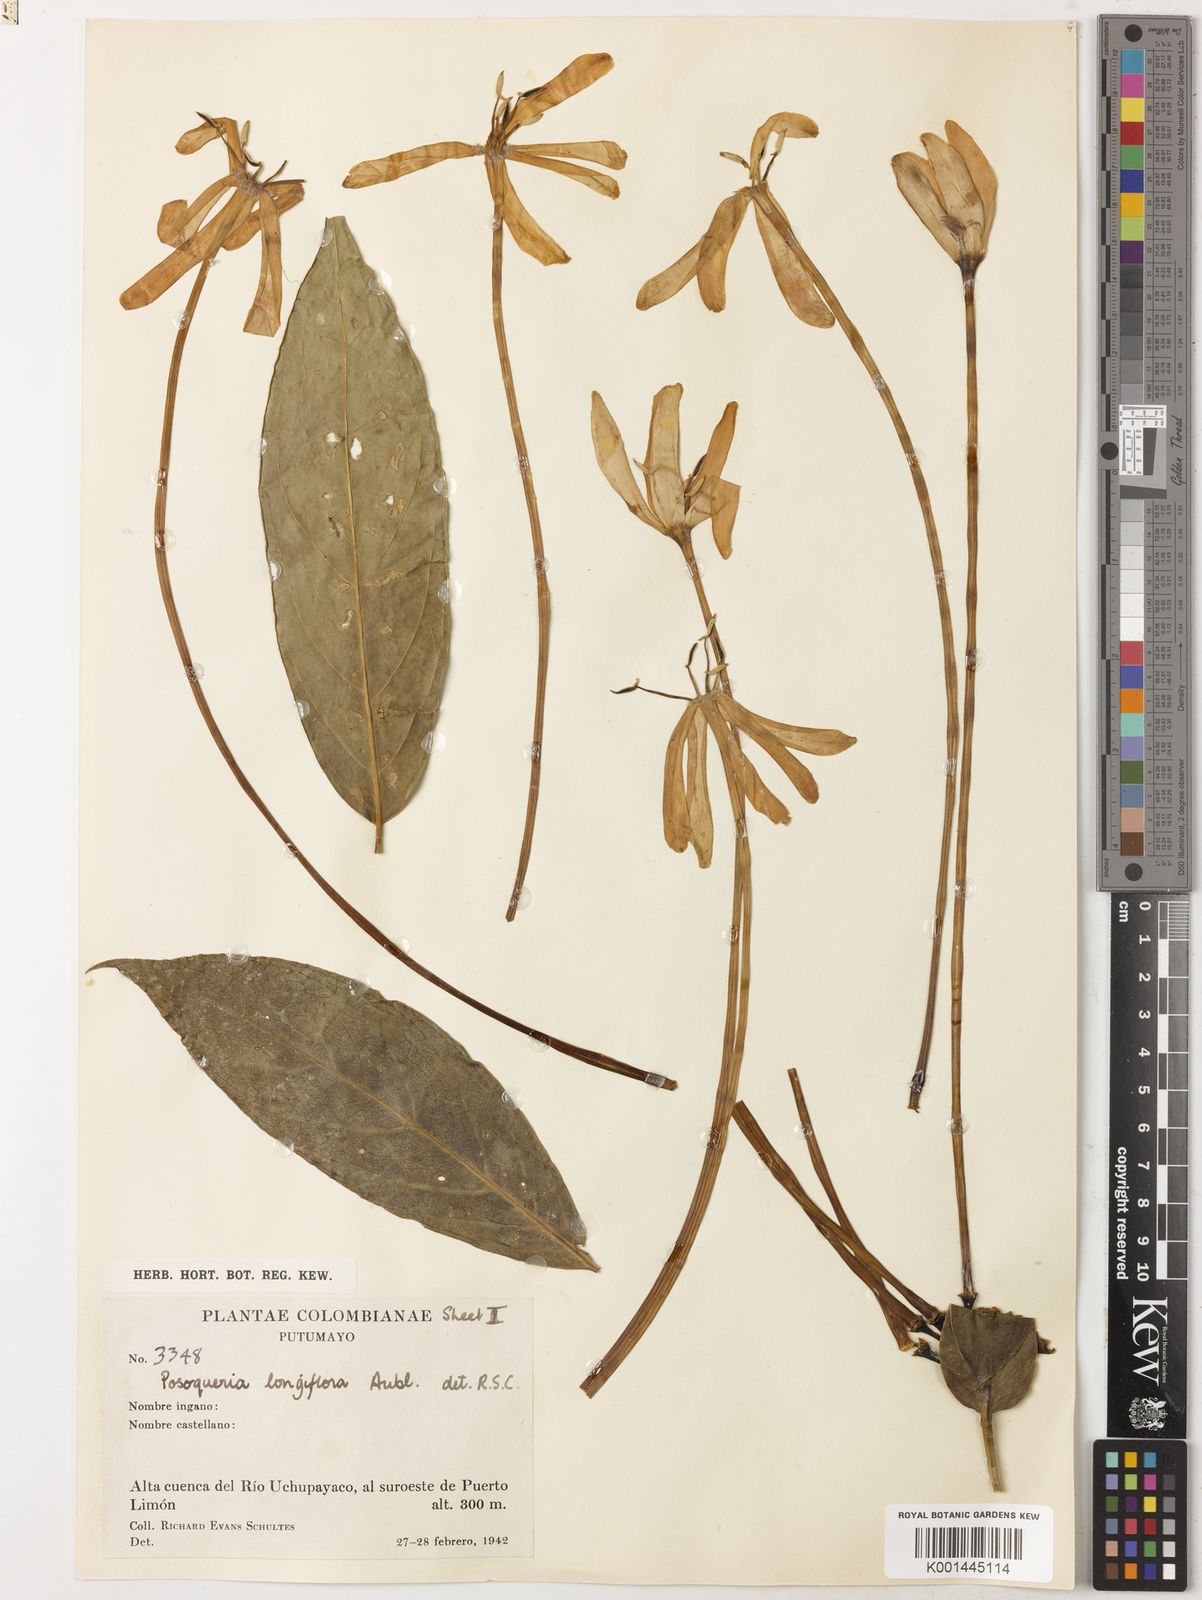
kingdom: Plantae
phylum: Tracheophyta
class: Magnoliopsida
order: Gentianales
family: Rubiaceae
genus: Posoqueria
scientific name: Posoqueria longiflora
